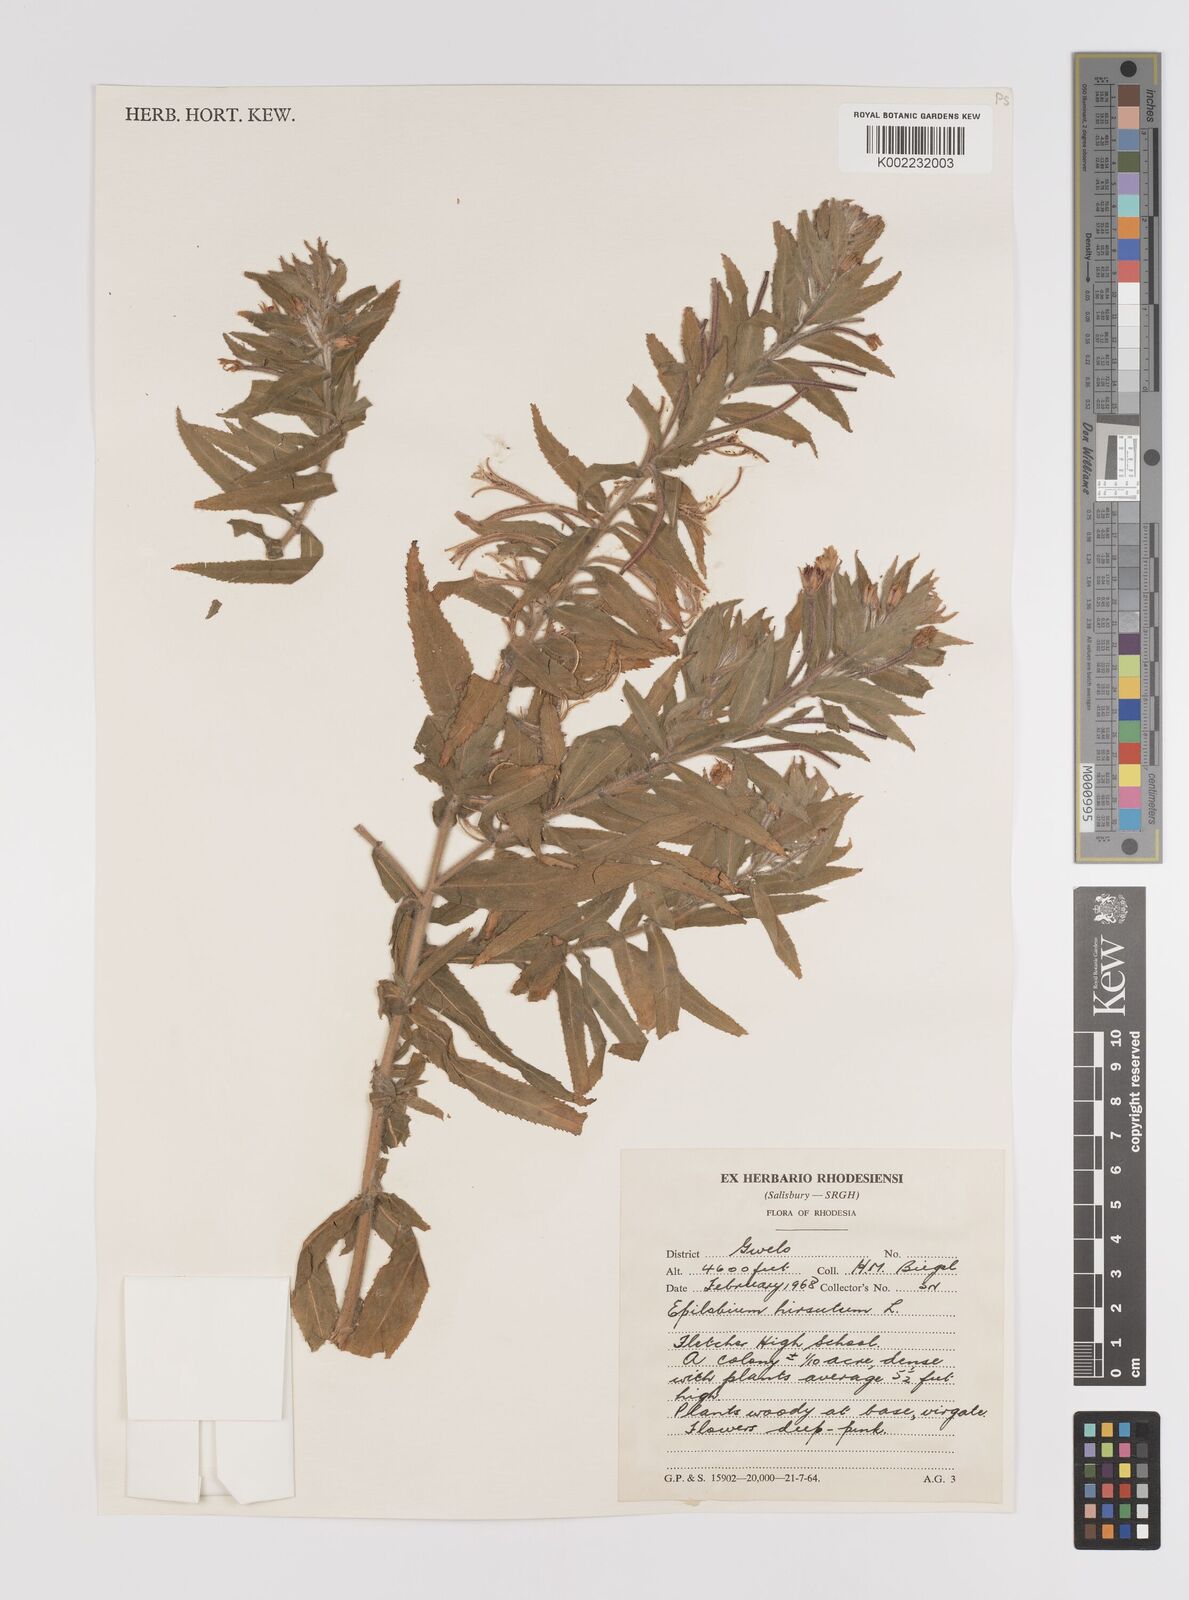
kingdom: Plantae
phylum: Tracheophyta
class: Magnoliopsida
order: Myrtales
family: Onagraceae
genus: Epilobium
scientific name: Epilobium hirsutum
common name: Great willowherb
